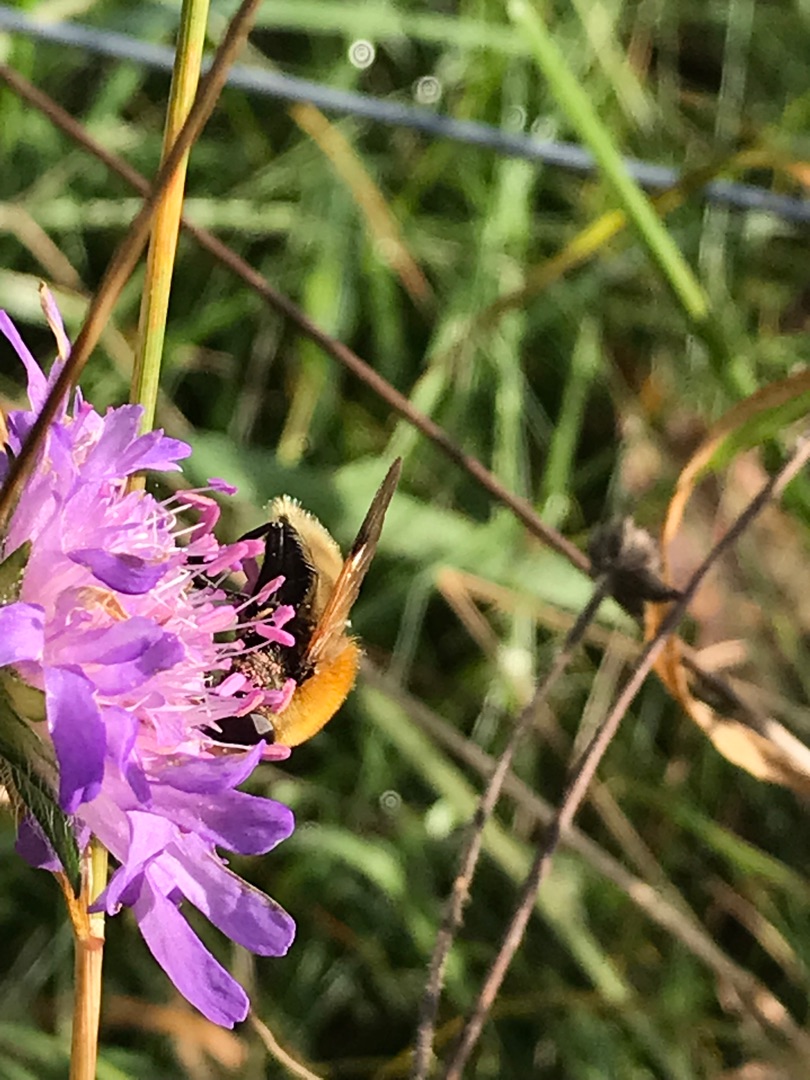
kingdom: Animalia
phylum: Arthropoda
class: Insecta
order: Diptera
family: Syrphidae
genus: Sericomyia
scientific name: Sericomyia superbiens
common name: Brun bjørnesvirreflue
